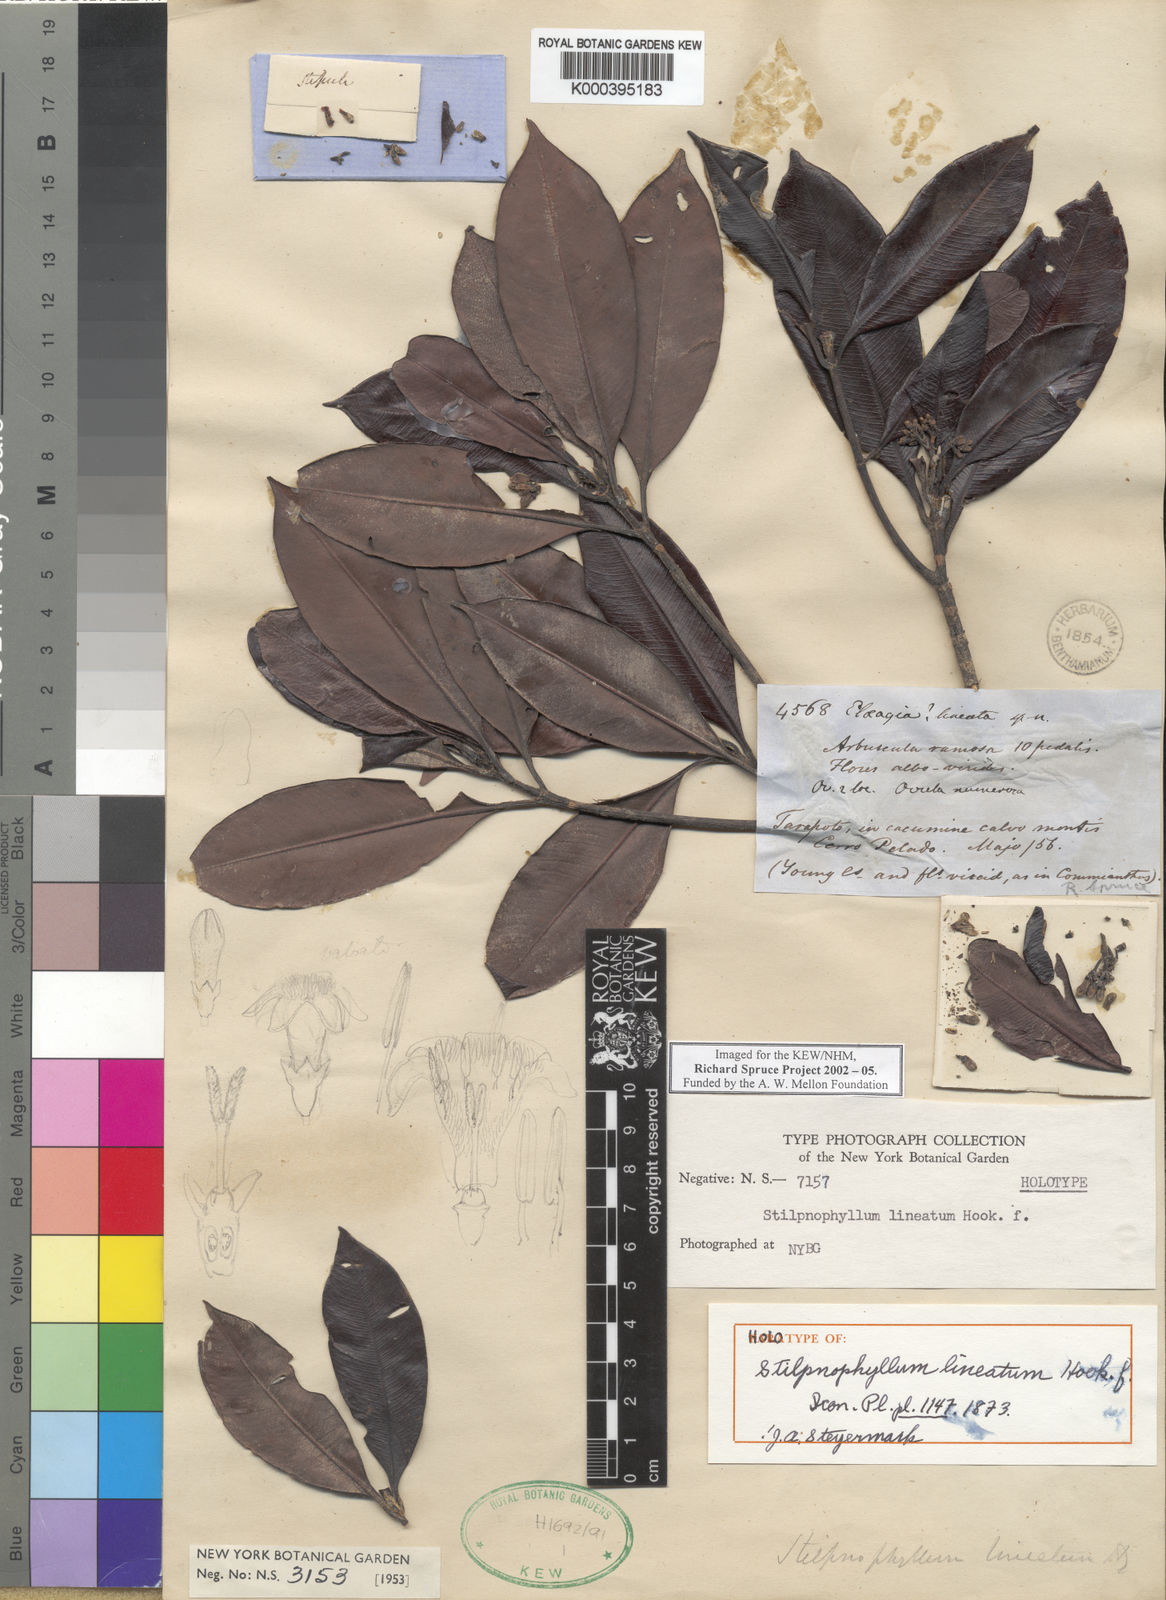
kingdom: Plantae
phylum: Tracheophyta
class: Magnoliopsida
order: Gentianales
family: Rubiaceae
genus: Stilpnophyllum
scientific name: Stilpnophyllum lineatum
